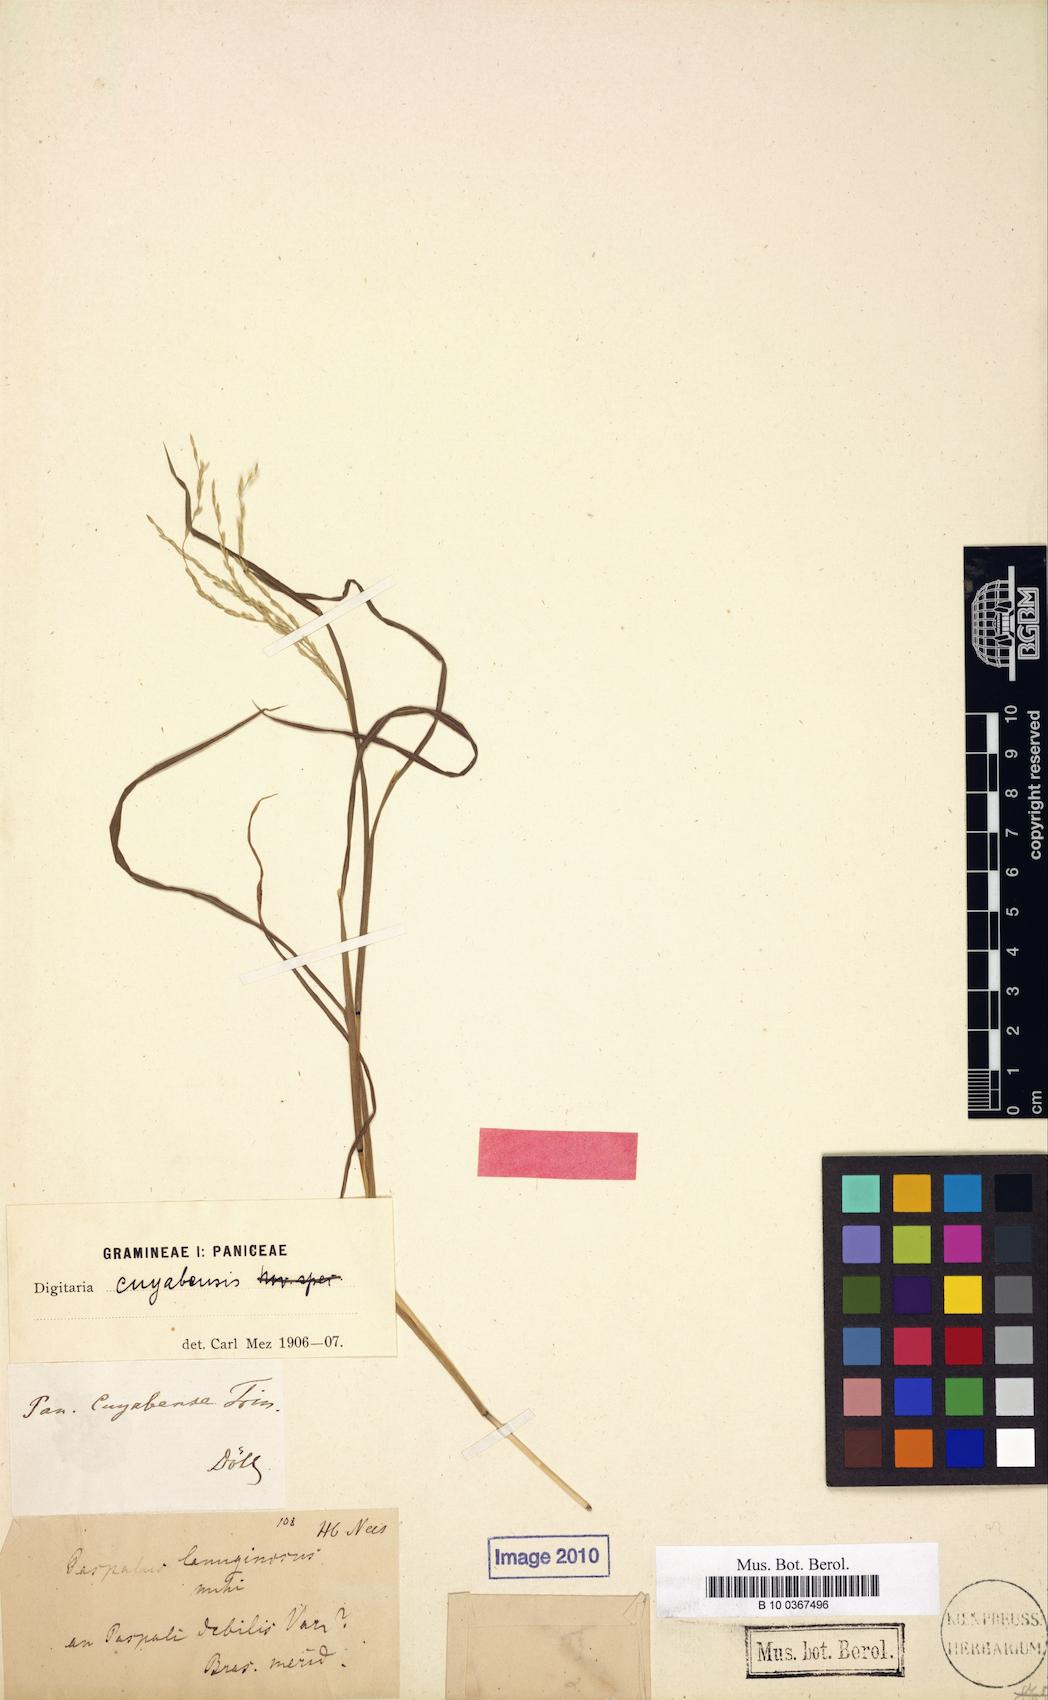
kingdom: Plantae
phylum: Tracheophyta
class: Liliopsida
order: Poales
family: Poaceae
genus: Digitaria
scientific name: Digitaria lanuginosa
